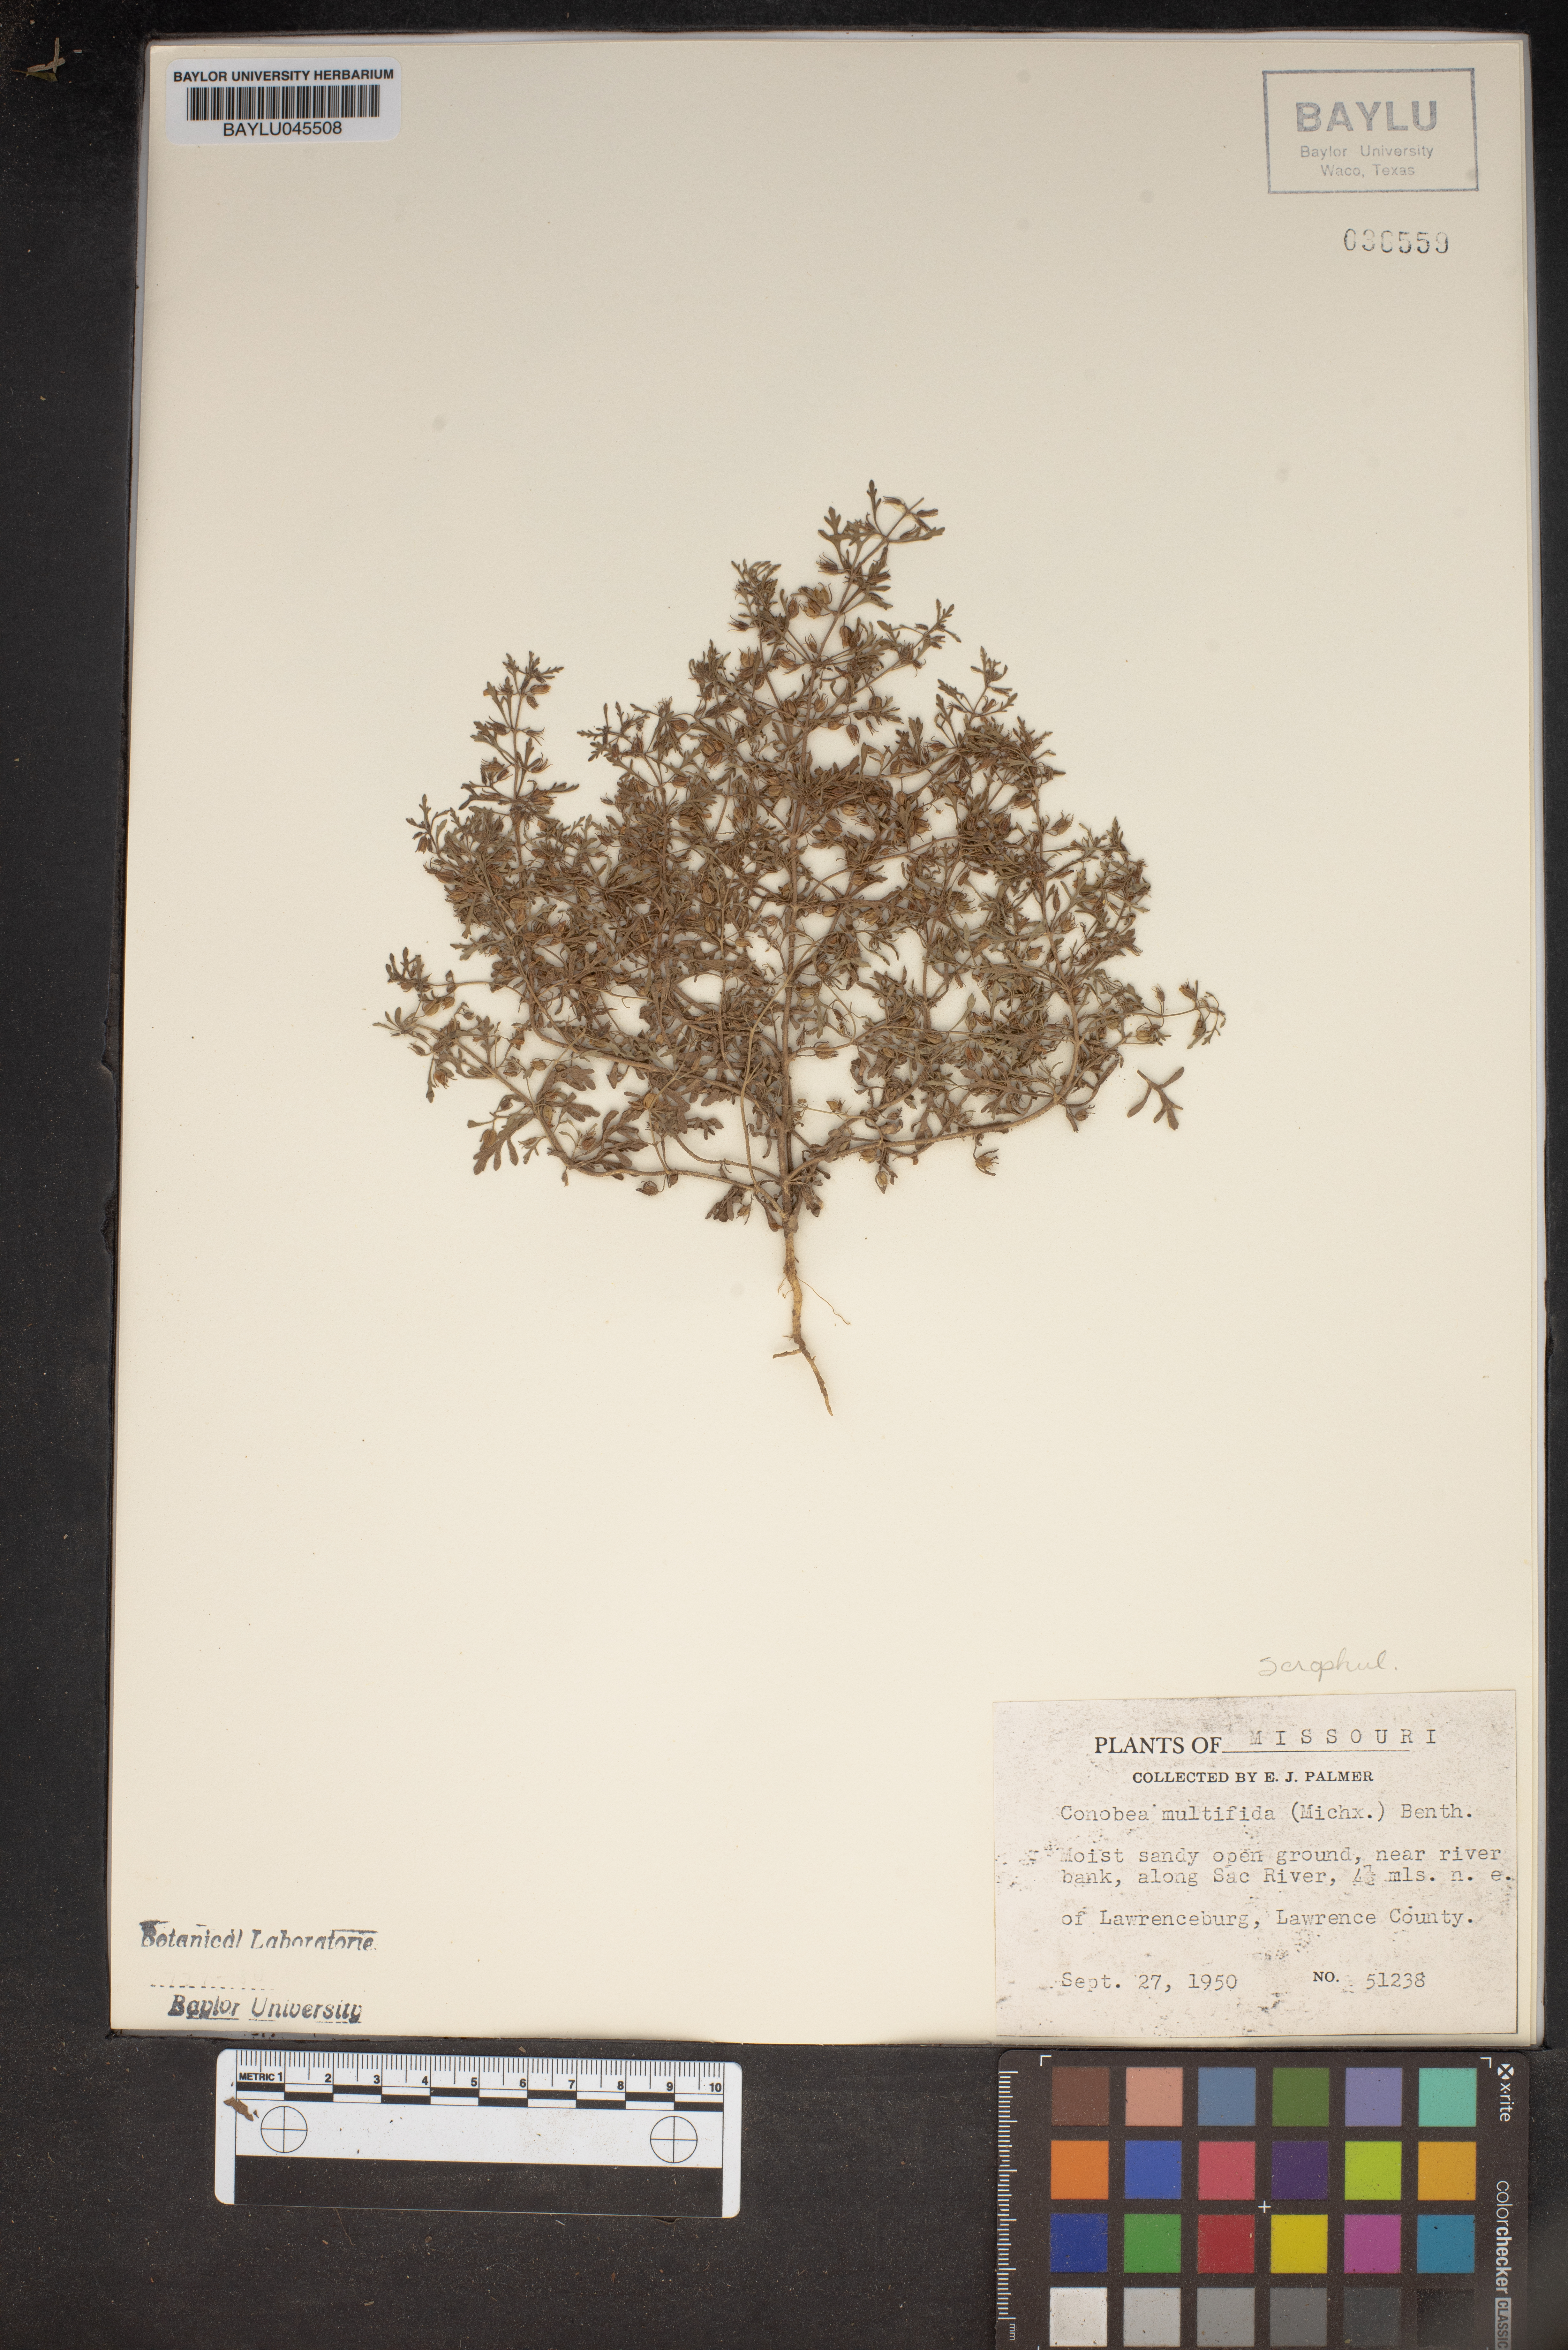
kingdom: Plantae
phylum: Tracheophyta
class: Magnoliopsida
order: Lamiales
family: Plantaginaceae
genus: Leucospora
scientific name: Leucospora multifida
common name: Narrow-leaf paleseed
